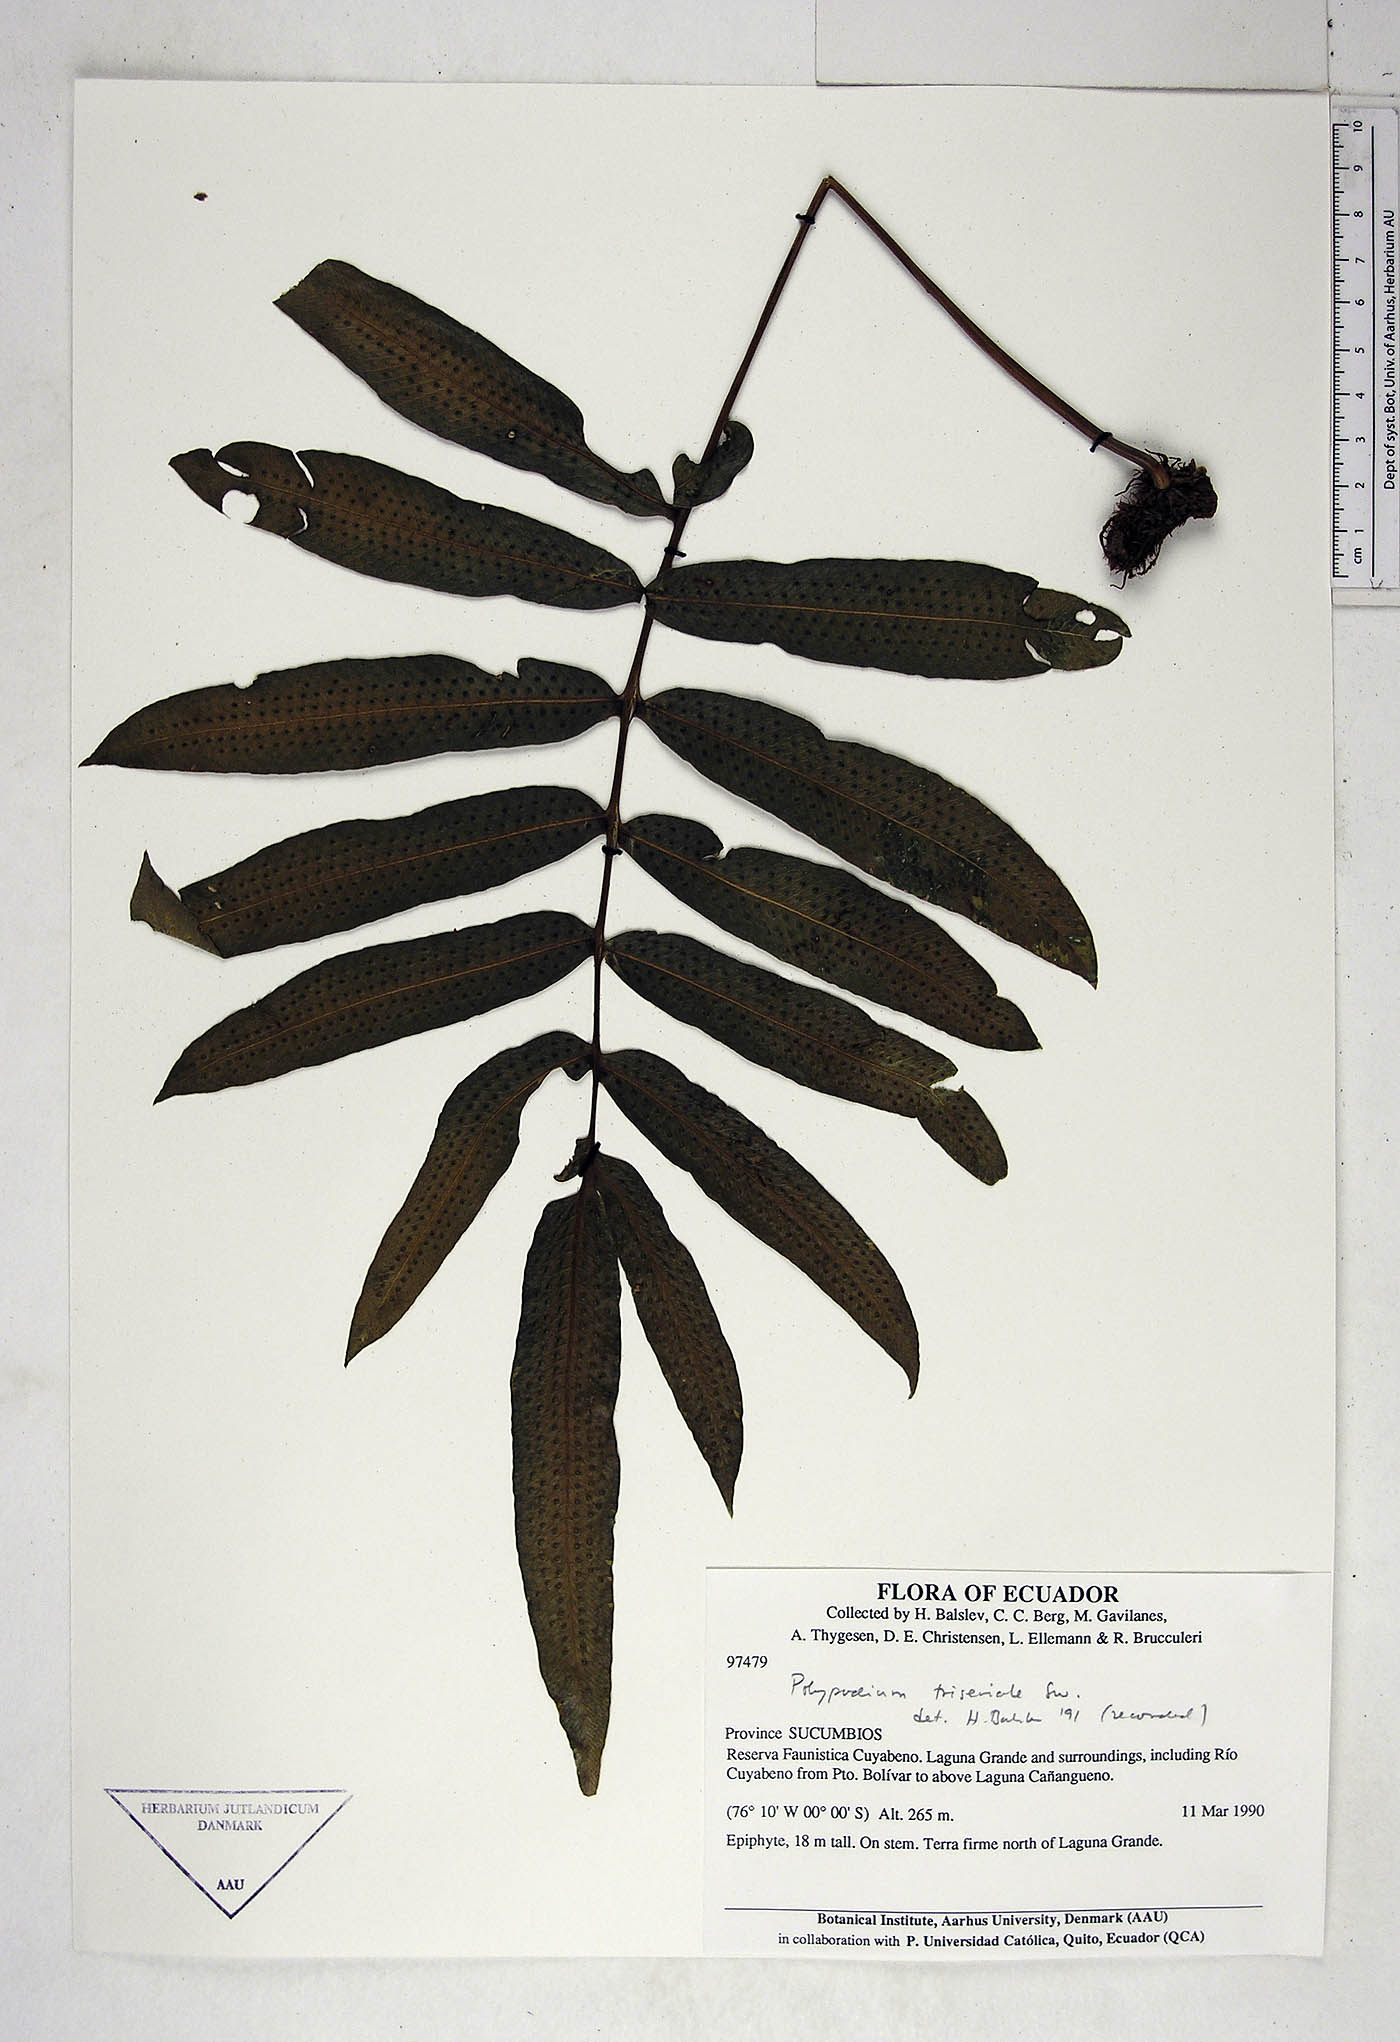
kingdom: Plantae
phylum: Tracheophyta
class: Polypodiopsida
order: Polypodiales
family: Polypodiaceae
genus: Serpocaulon
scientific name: Serpocaulon triseriale
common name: Angle-vein fern
